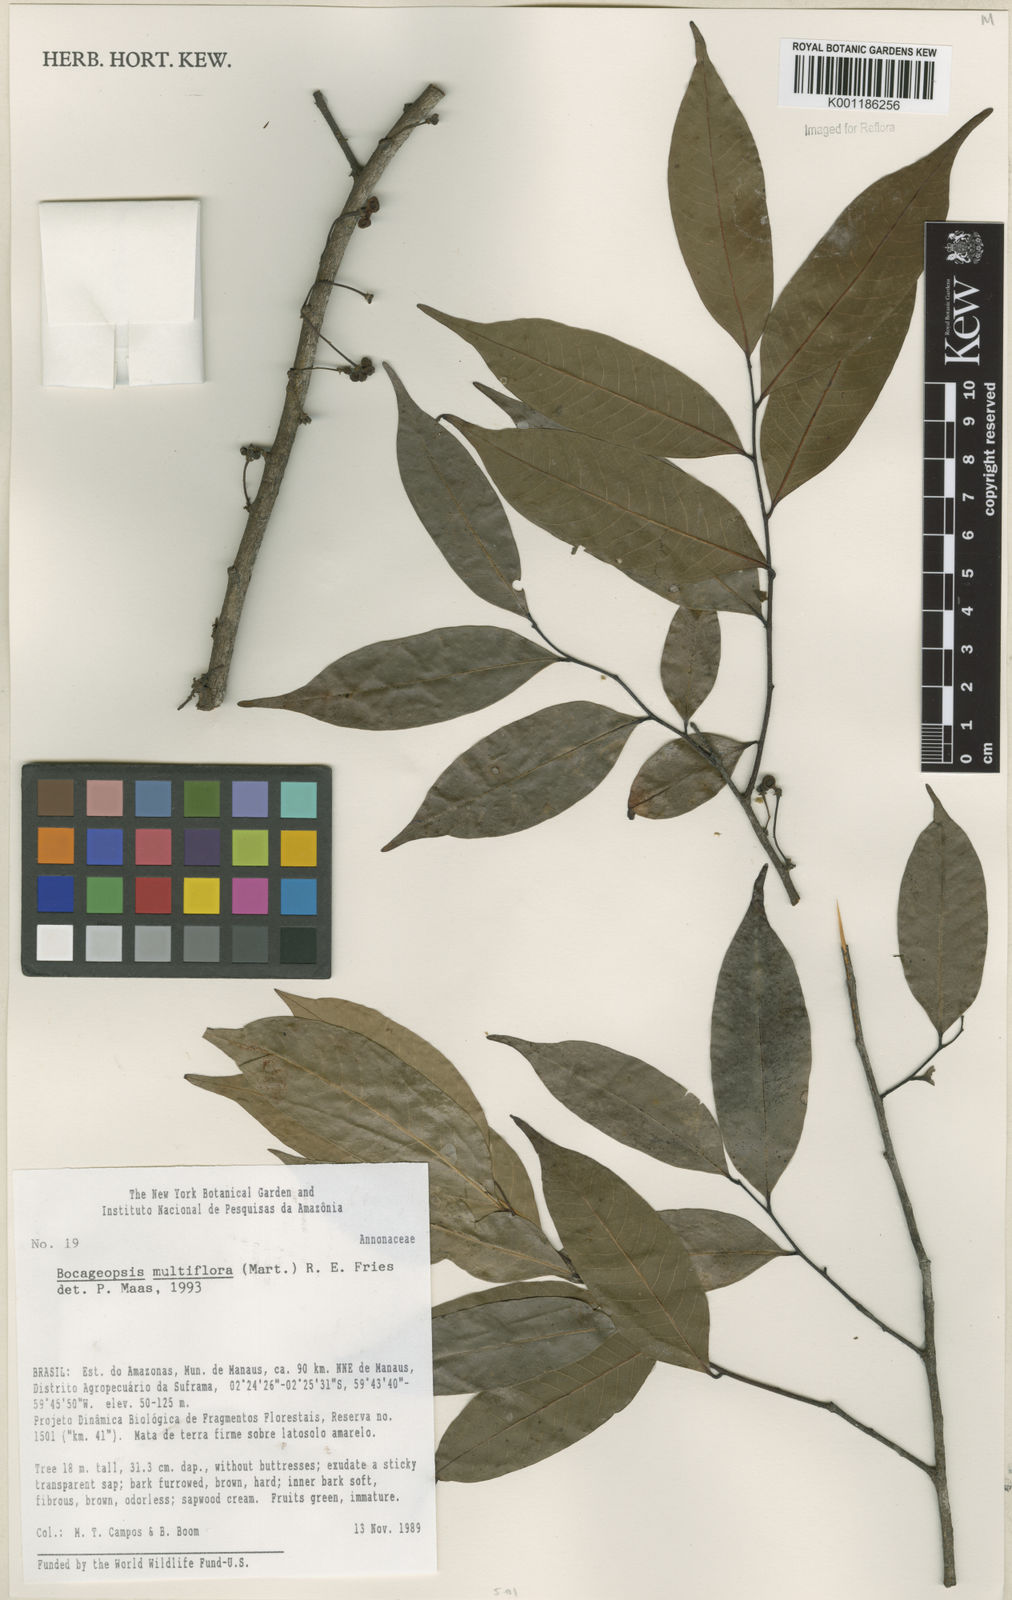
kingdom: Plantae
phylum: Tracheophyta
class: Magnoliopsida
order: Magnoliales
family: Annonaceae
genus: Bocageopsis
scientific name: Bocageopsis multiflora
